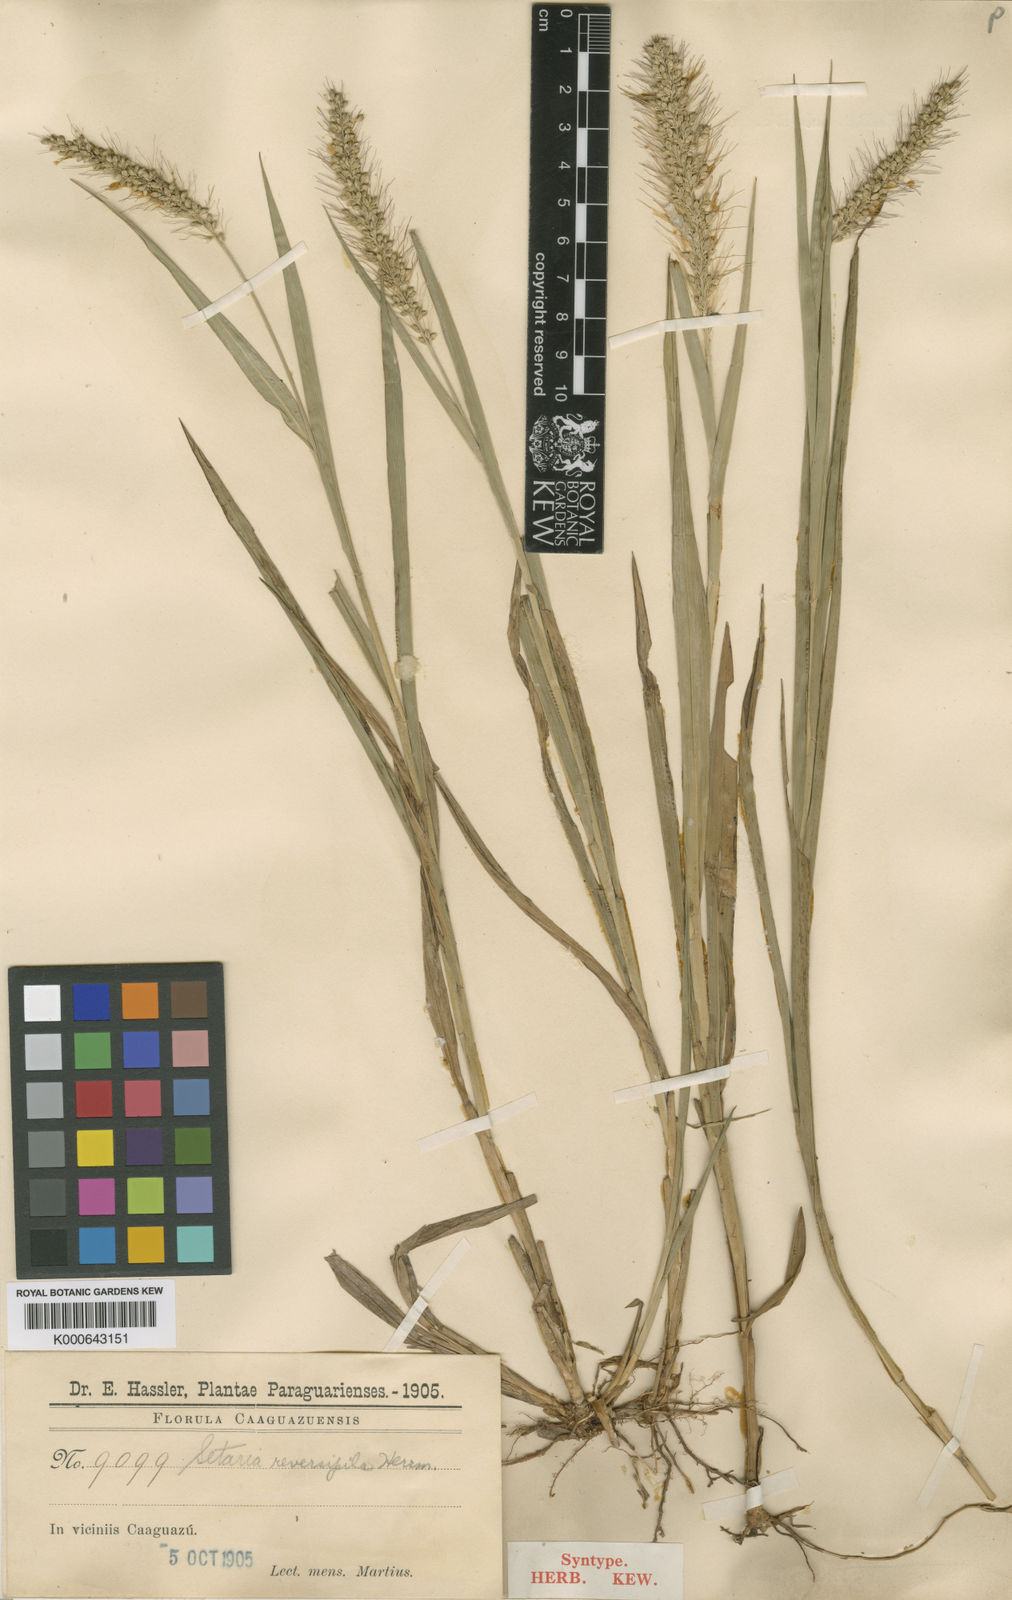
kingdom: Plantae
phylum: Tracheophyta
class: Liliopsida
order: Poales
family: Poaceae
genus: Setaria
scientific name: Setaria vulpiseta
